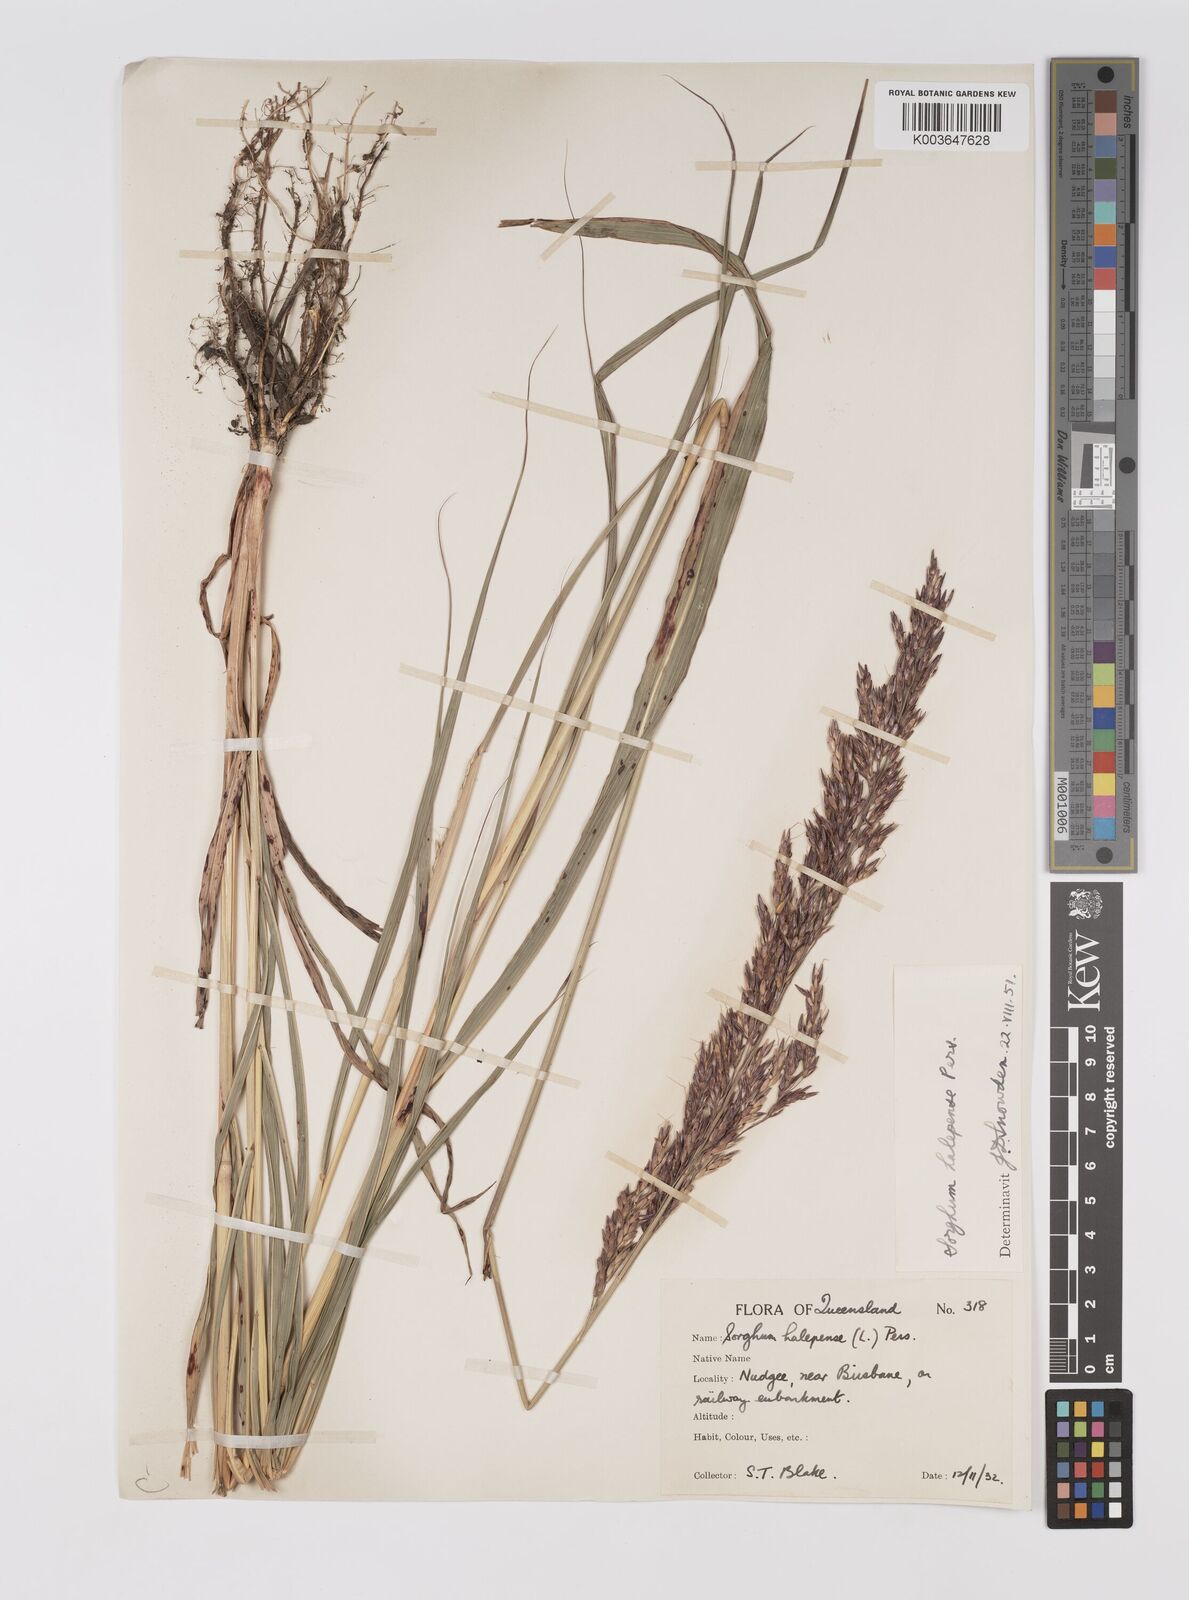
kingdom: Plantae
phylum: Tracheophyta
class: Liliopsida
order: Poales
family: Poaceae
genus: Sorghum
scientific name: Sorghum halepense
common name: Johnson-grass
